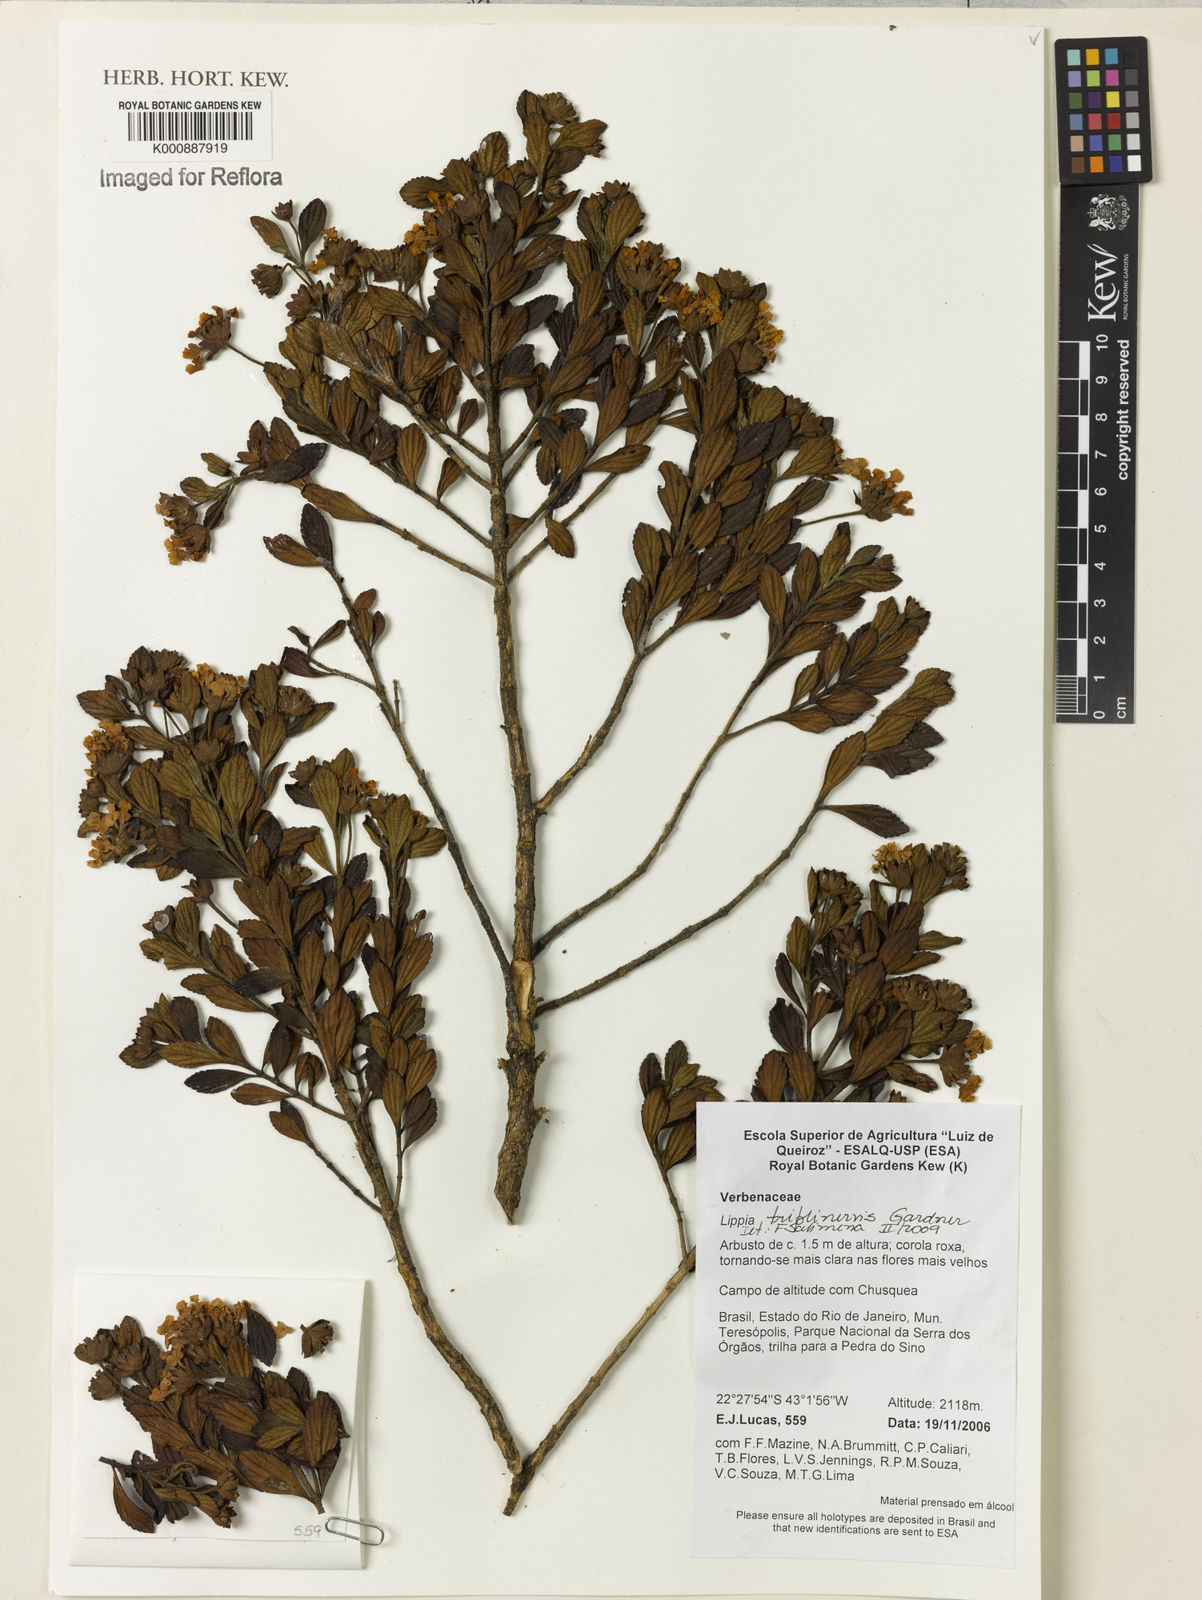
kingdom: Plantae
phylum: Tracheophyta
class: Magnoliopsida
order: Lamiales
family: Verbenaceae
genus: Lippia
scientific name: Lippia triplinervis
